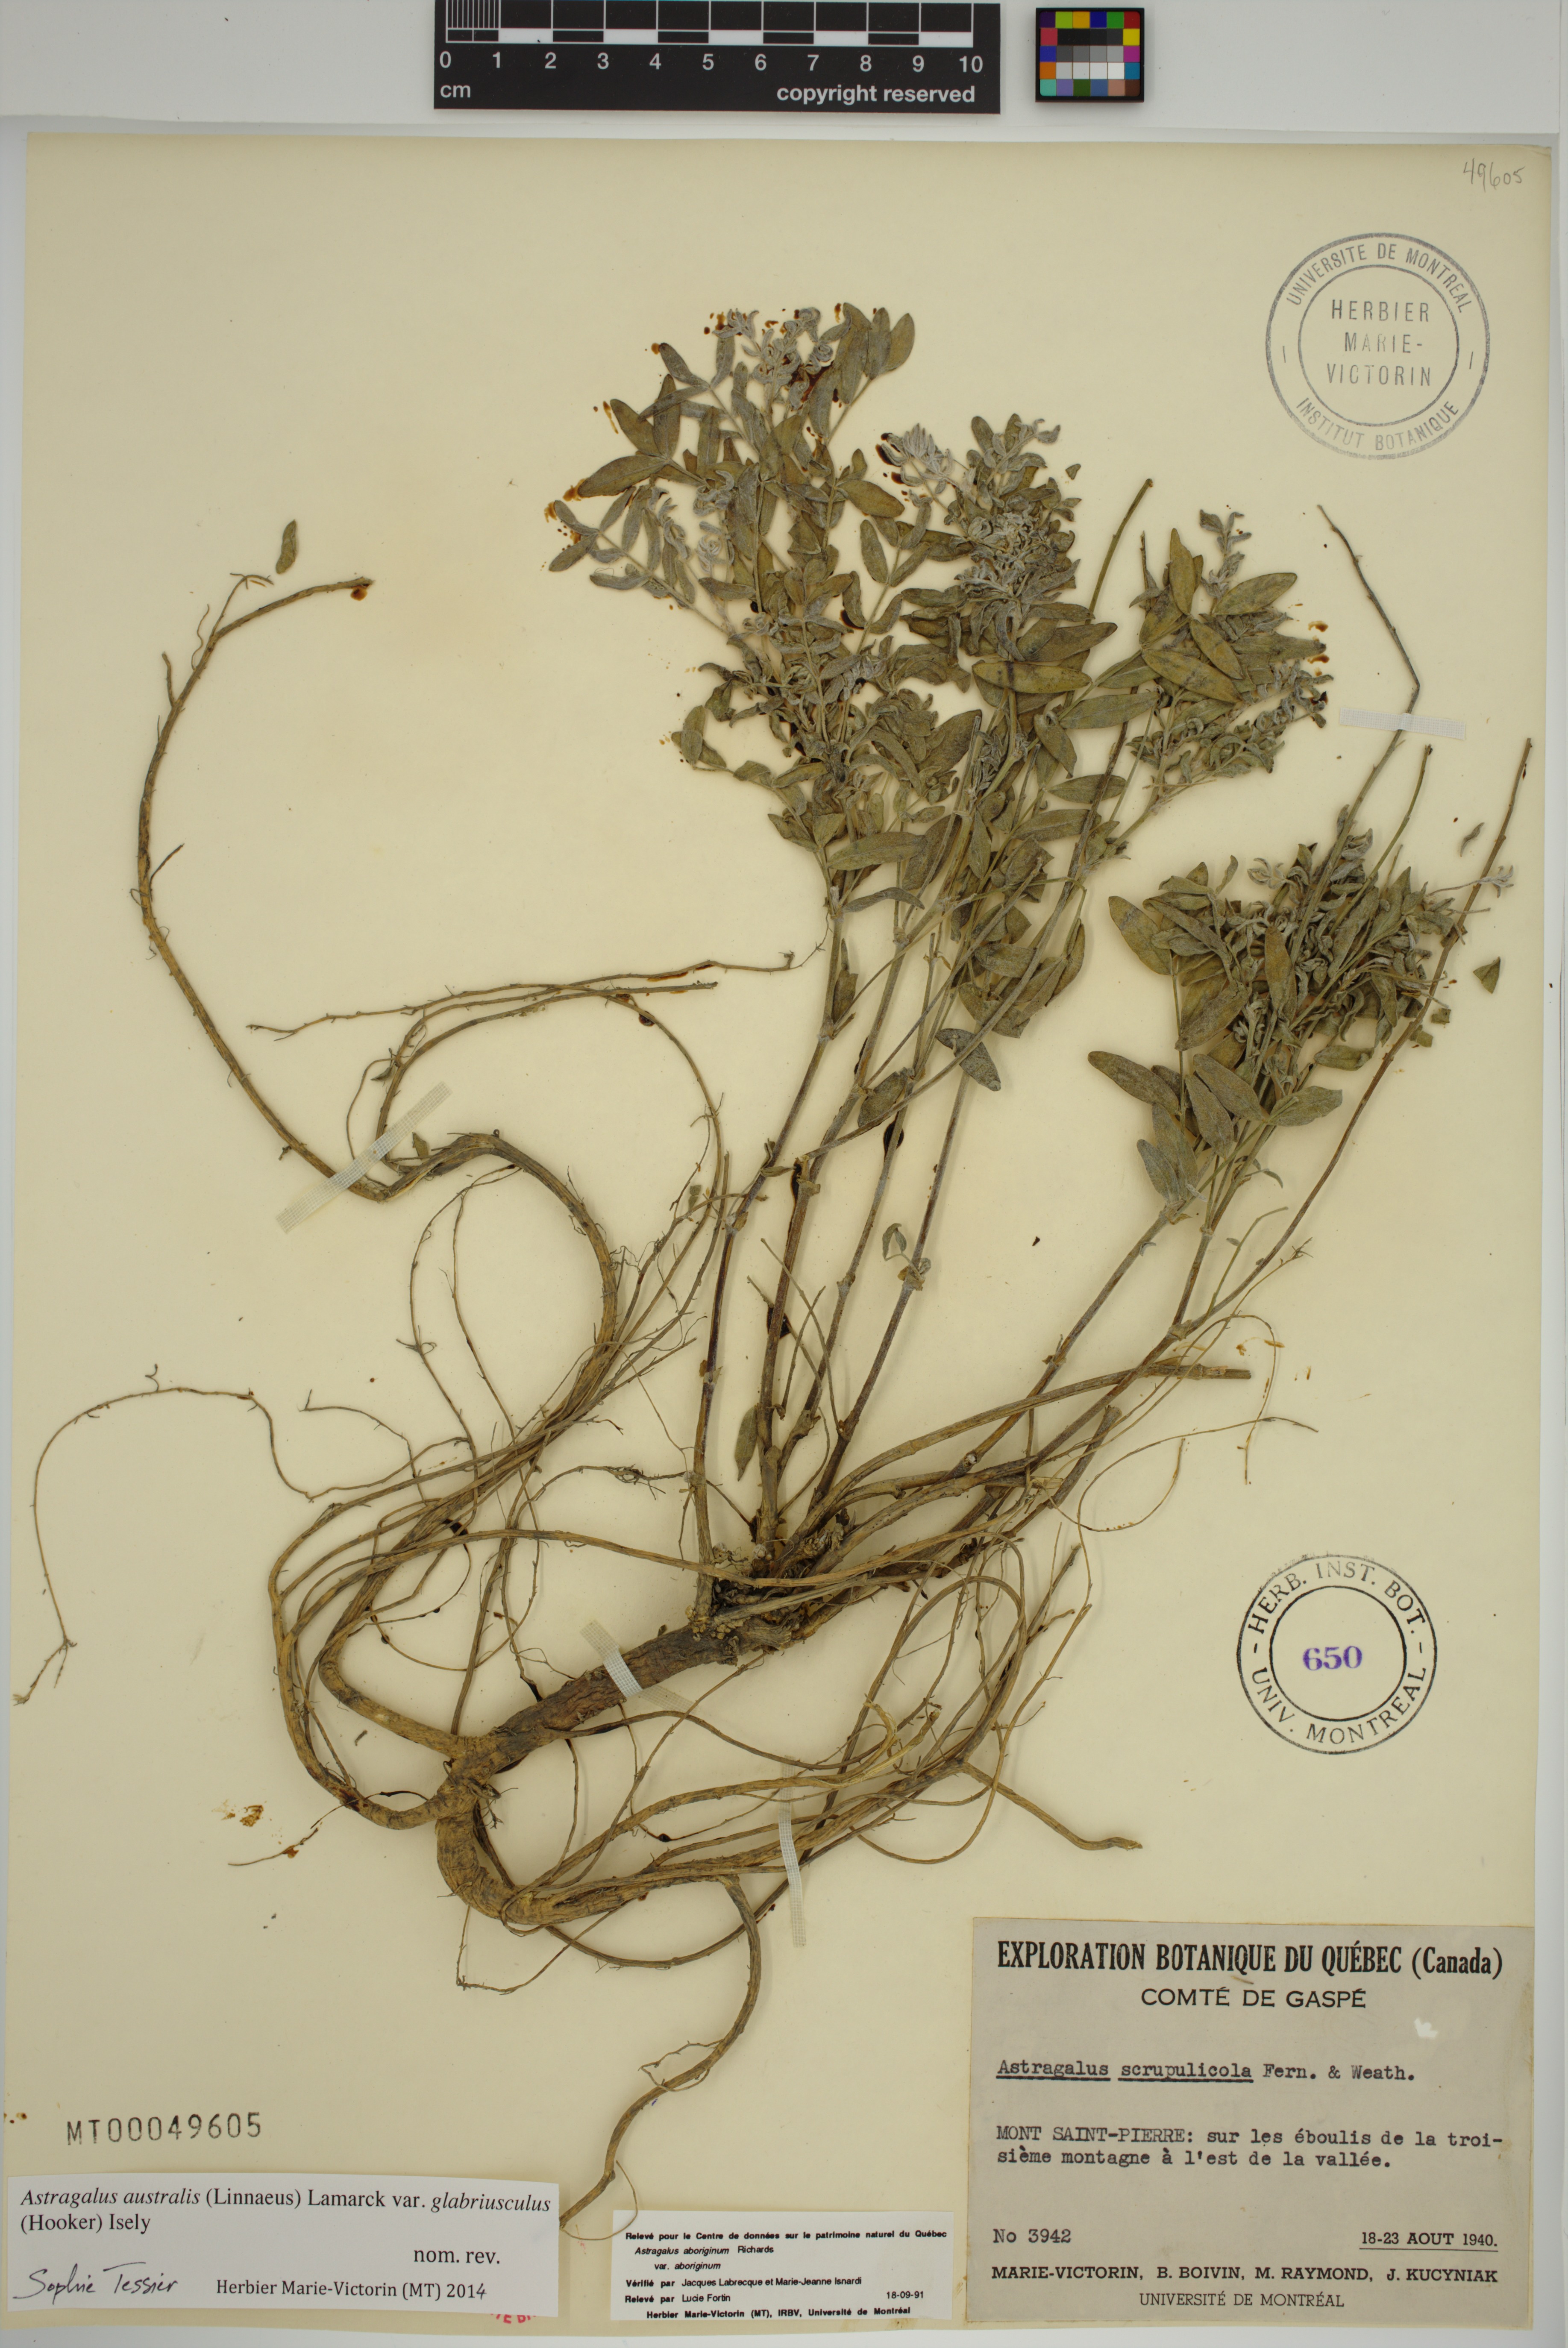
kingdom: Plantae
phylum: Tracheophyta
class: Magnoliopsida
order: Fabales
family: Fabaceae
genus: Astragalus
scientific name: Astragalus aboriginorum
